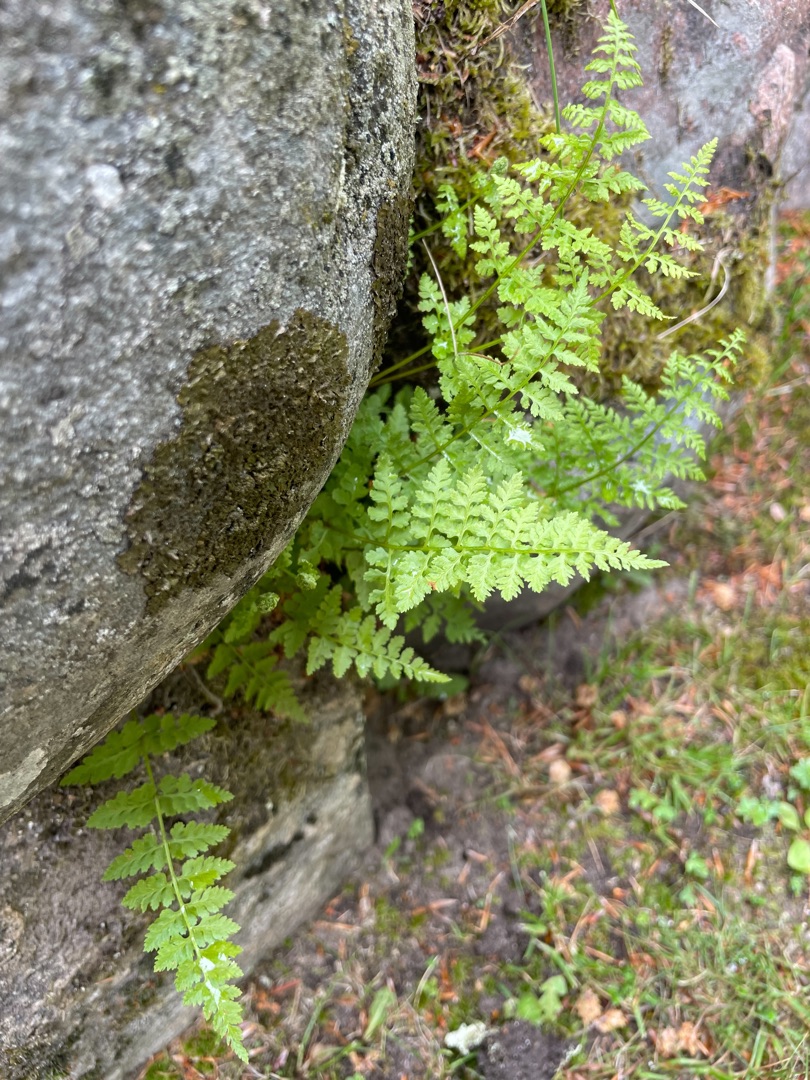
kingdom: Plantae
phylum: Tracheophyta
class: Polypodiopsida
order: Polypodiales
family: Cystopteridaceae
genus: Cystopteris
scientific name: Cystopteris fragilis
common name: Bægerbregne
